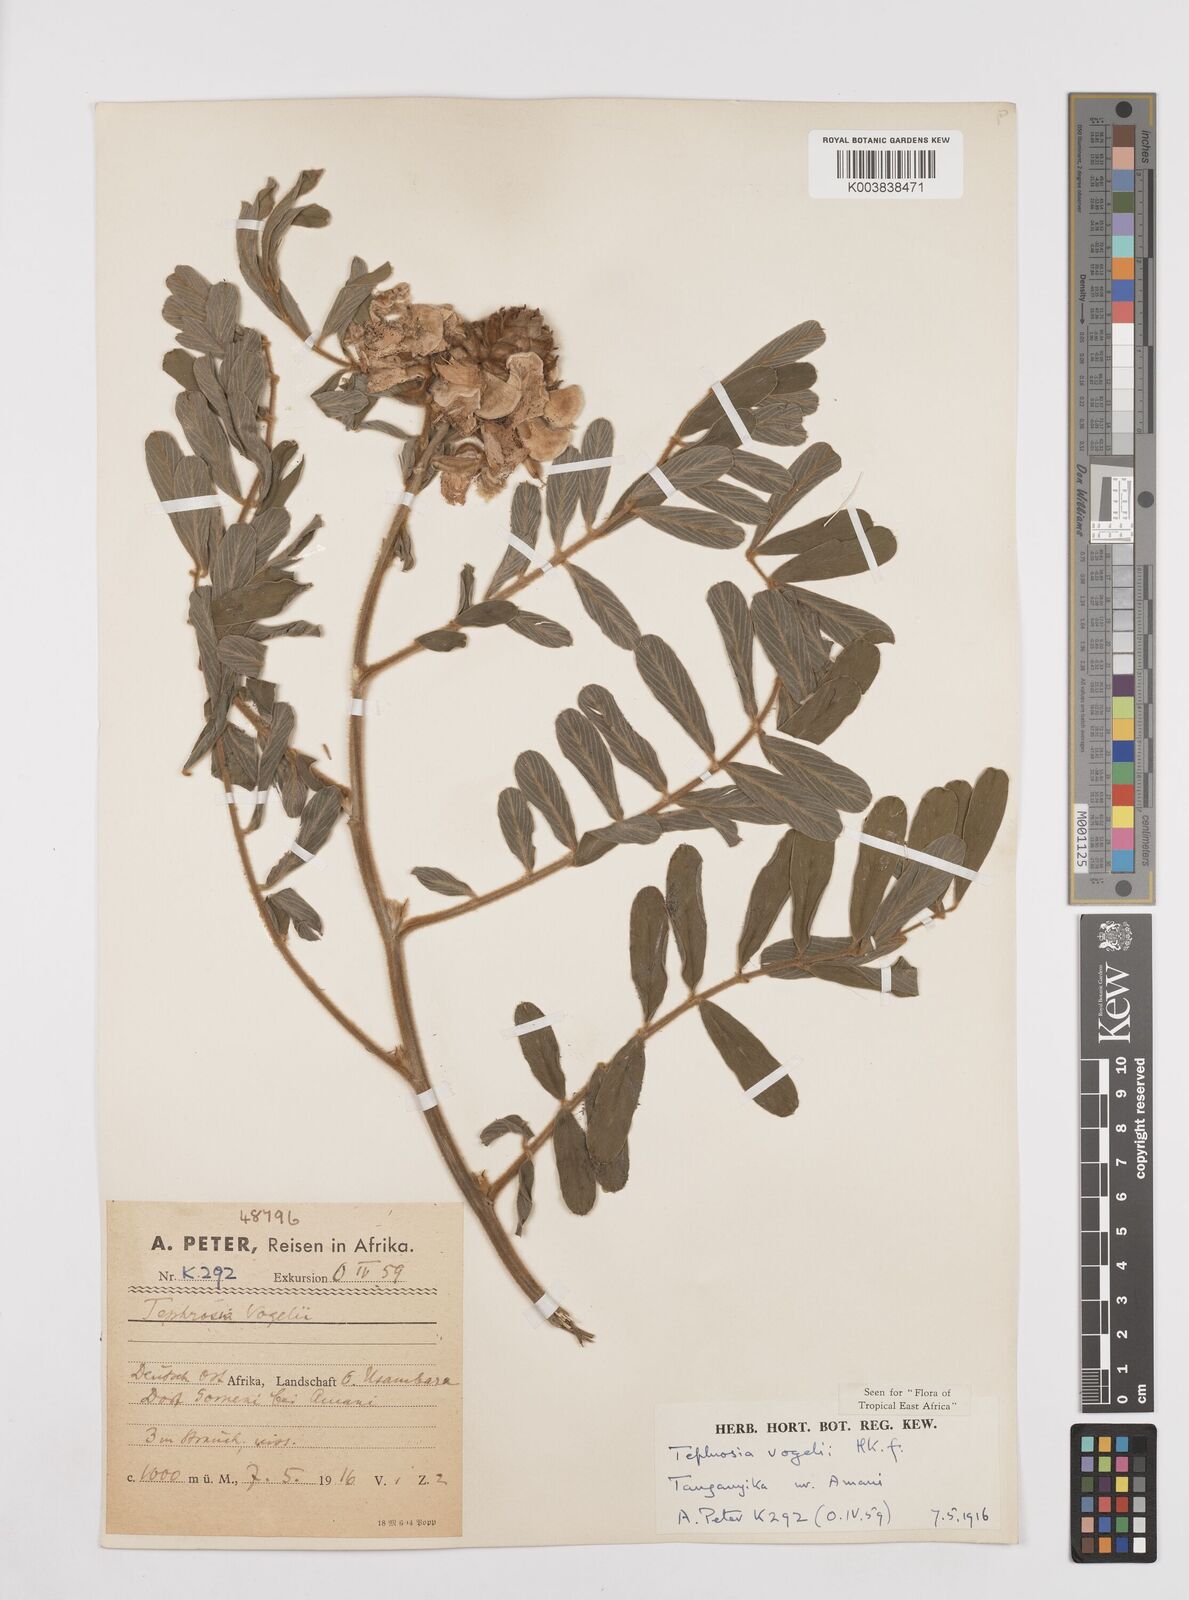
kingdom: Plantae
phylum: Tracheophyta
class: Magnoliopsida
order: Fabales
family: Fabaceae
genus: Tephrosia
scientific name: Tephrosia vogelii
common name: Vogel tephrosia
